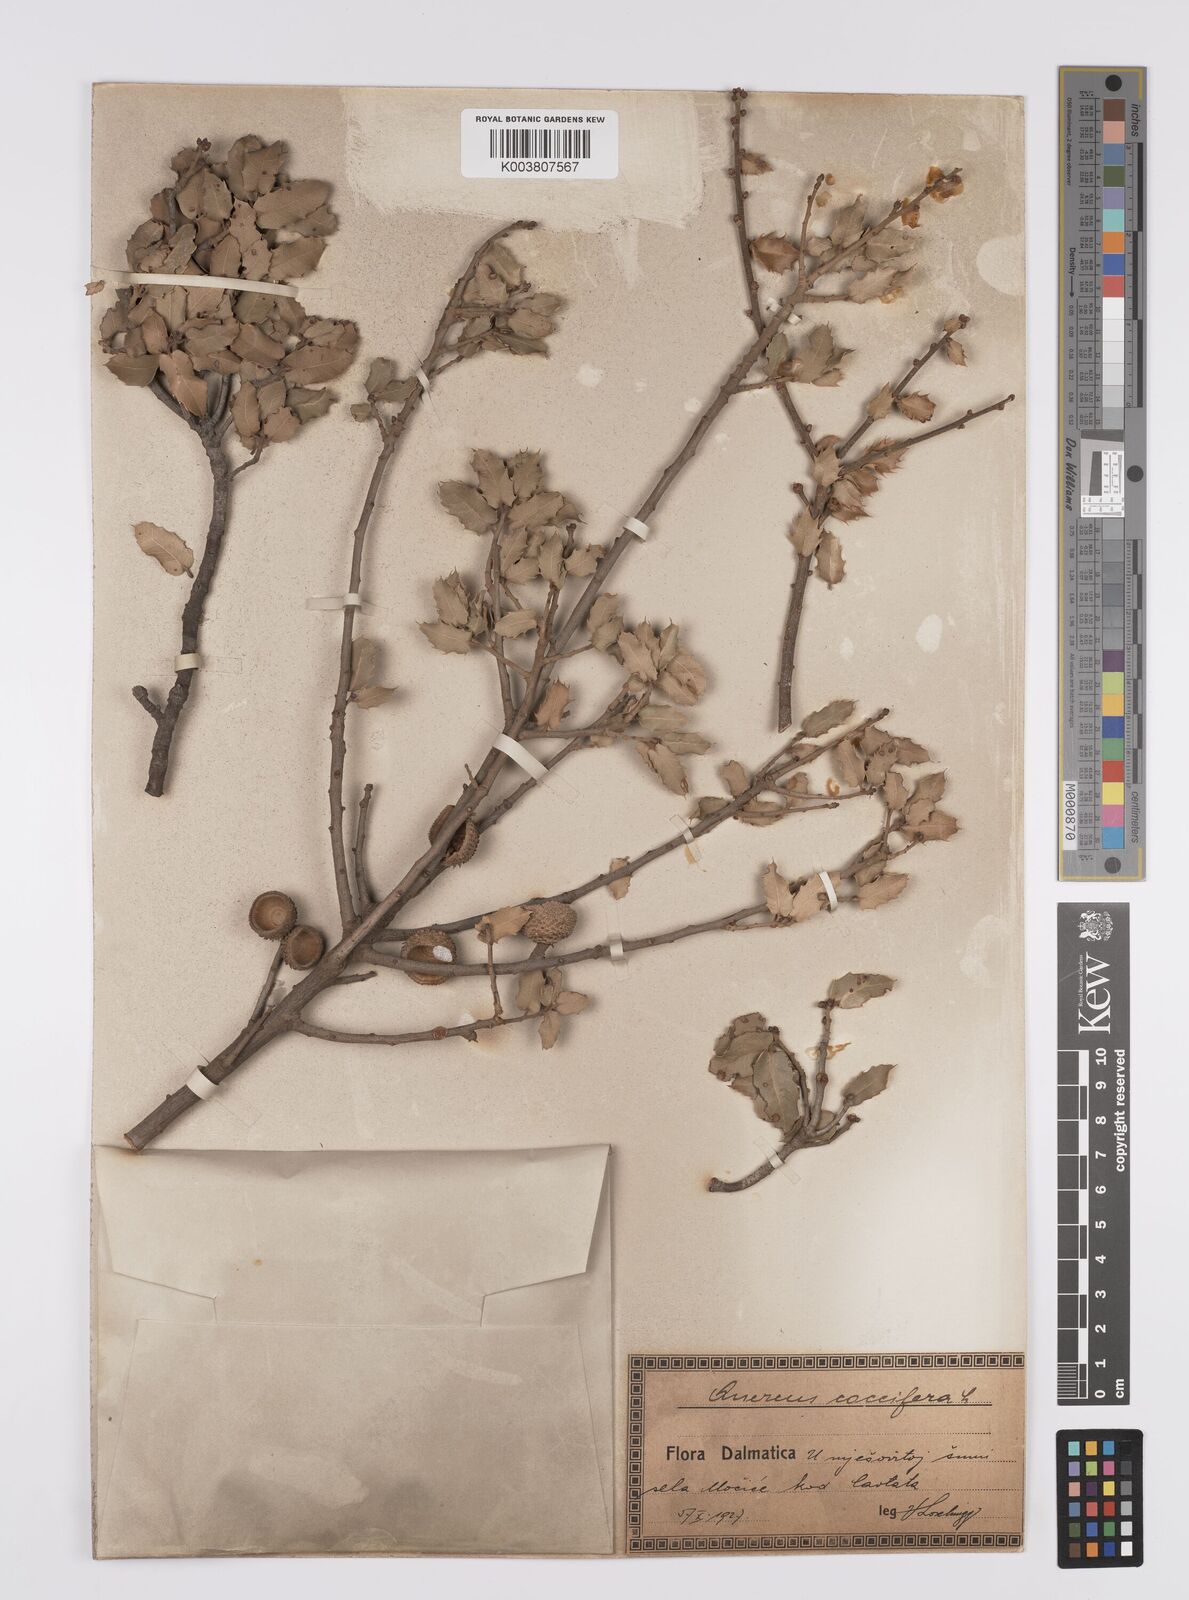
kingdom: Plantae
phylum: Tracheophyta
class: Magnoliopsida
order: Fagales
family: Fagaceae
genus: Quercus
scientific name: Quercus coccifera
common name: Kermes oak
